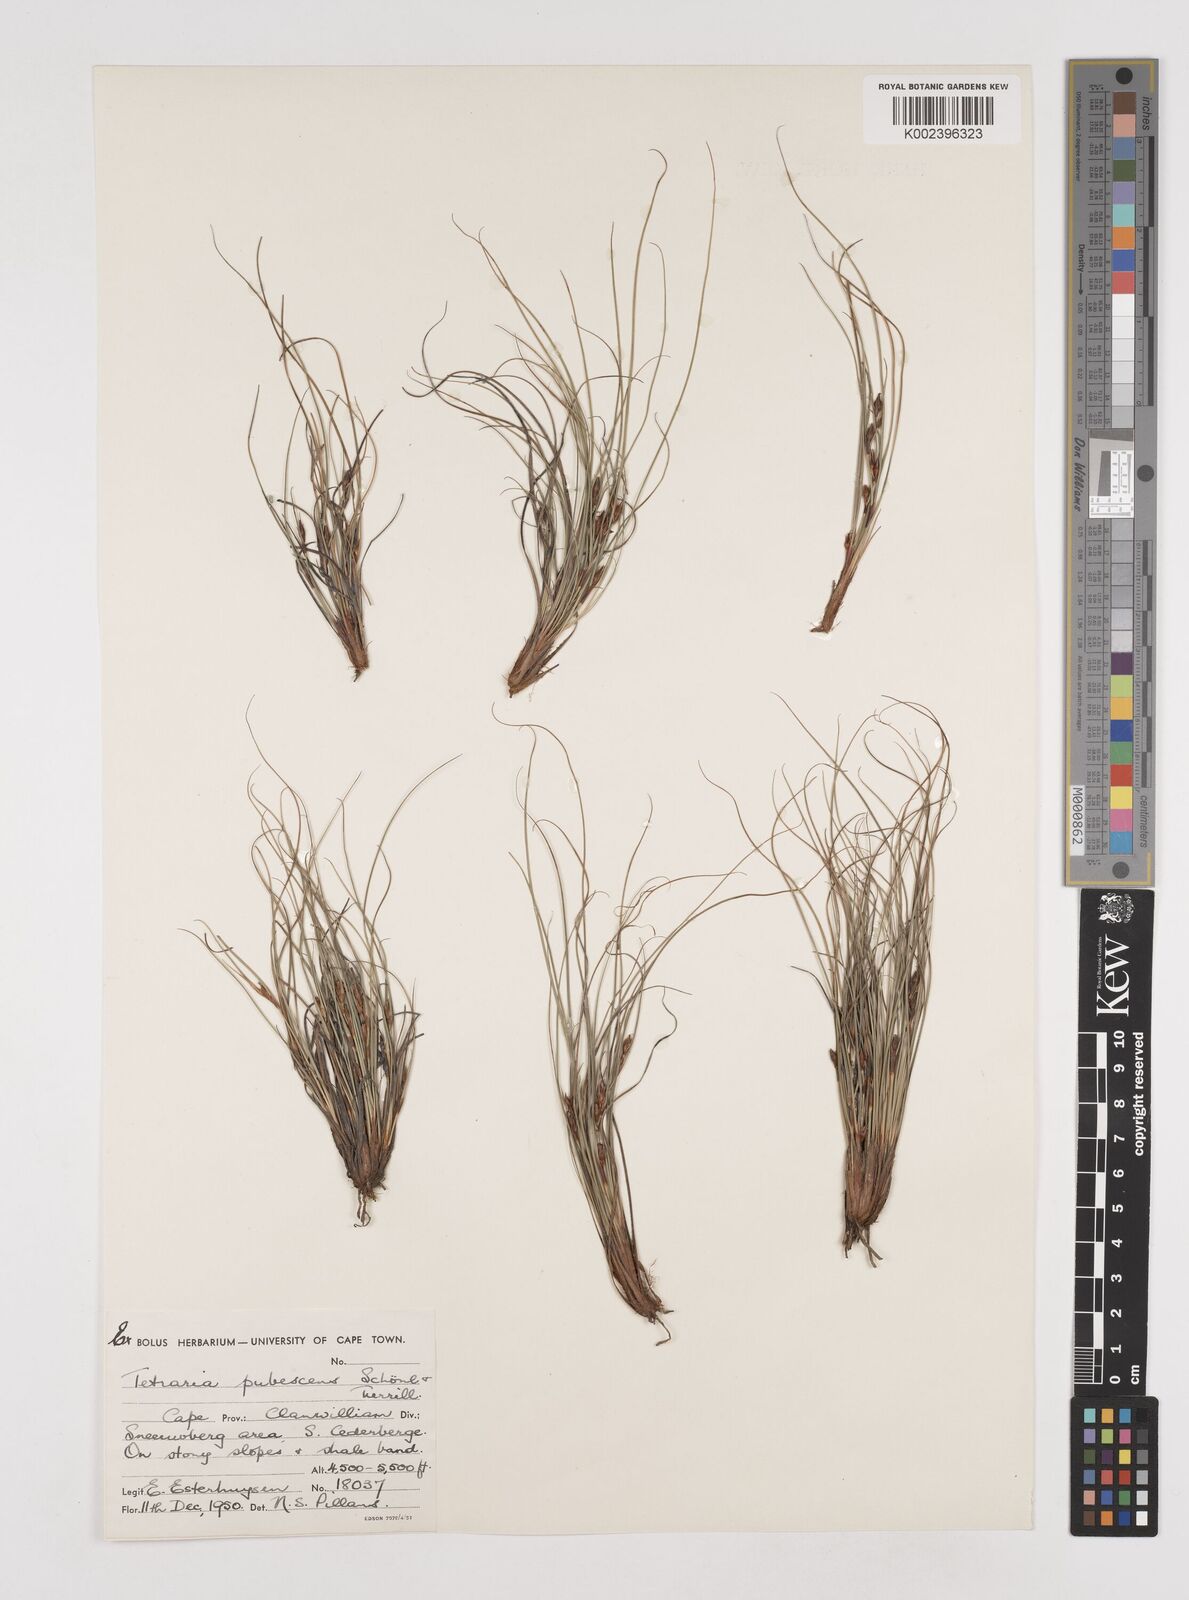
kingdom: Plantae
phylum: Tracheophyta
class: Liliopsida
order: Poales
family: Cyperaceae
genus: Tetraria
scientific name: Tetraria pubescens
